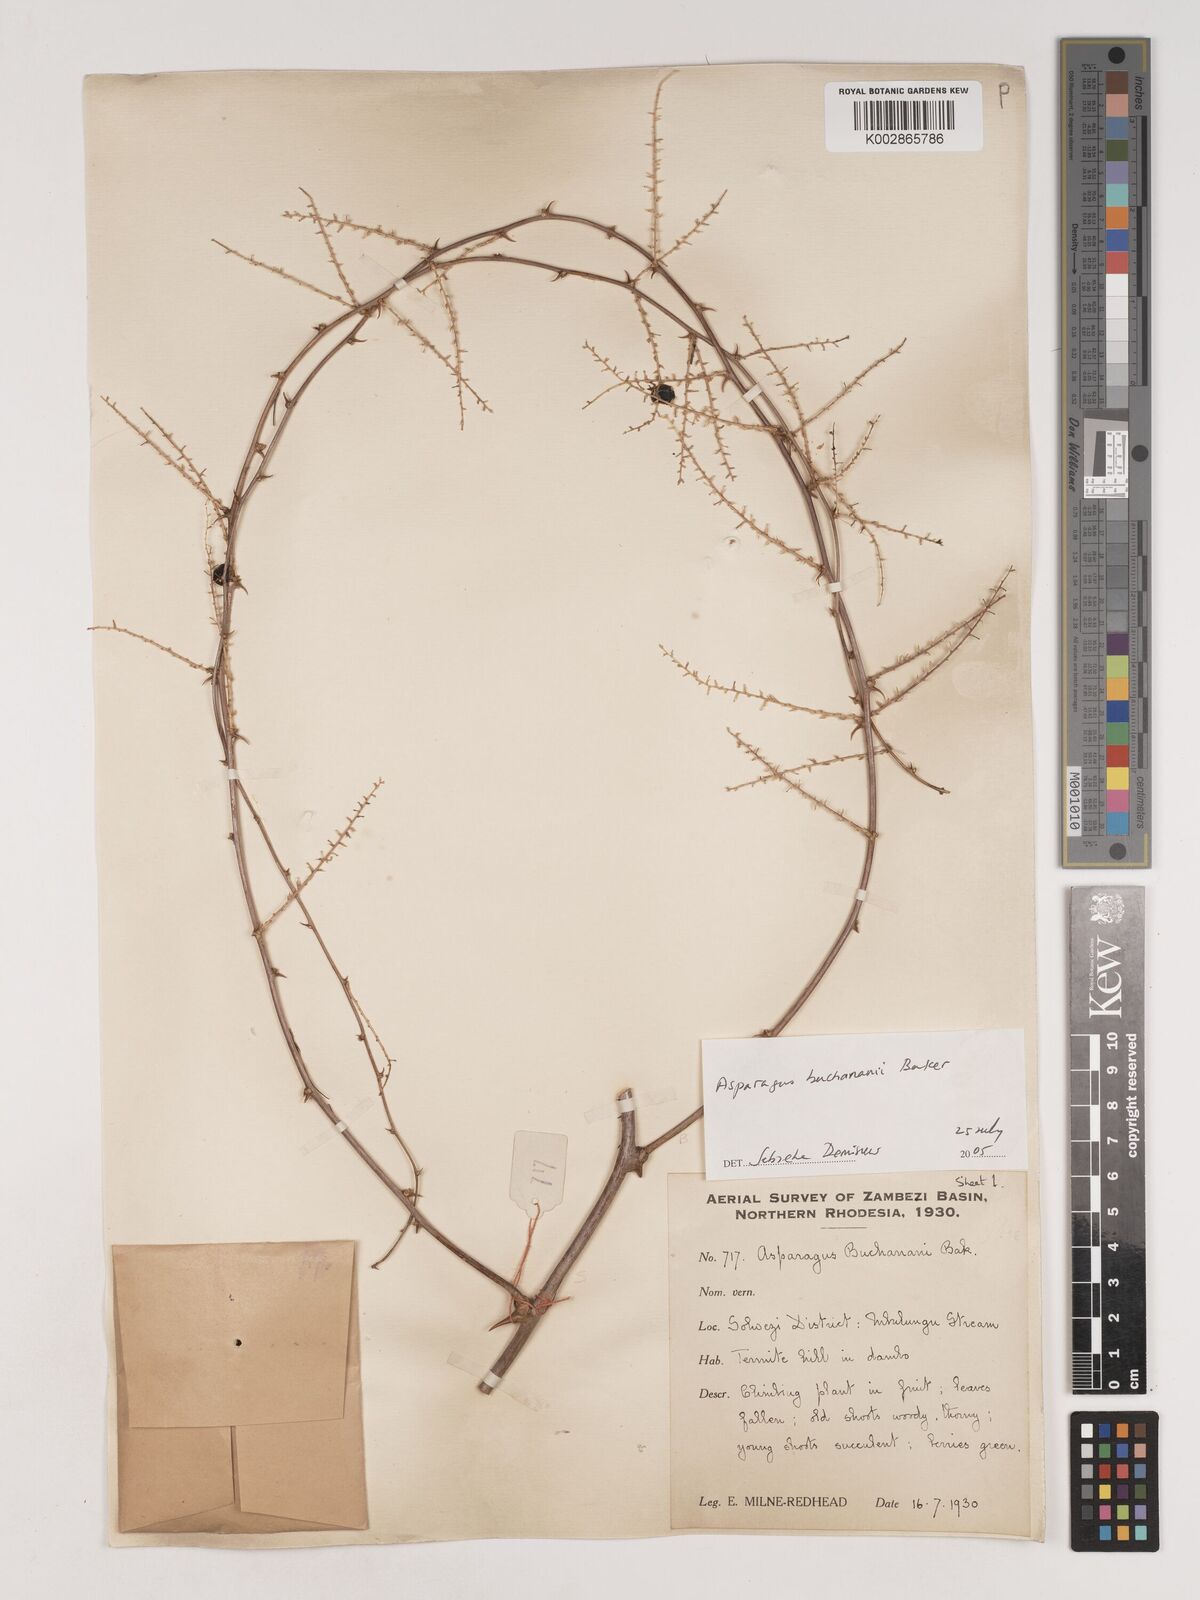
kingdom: Plantae
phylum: Tracheophyta
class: Liliopsida
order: Asparagales
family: Asparagaceae
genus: Asparagus
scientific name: Asparagus buchananii
